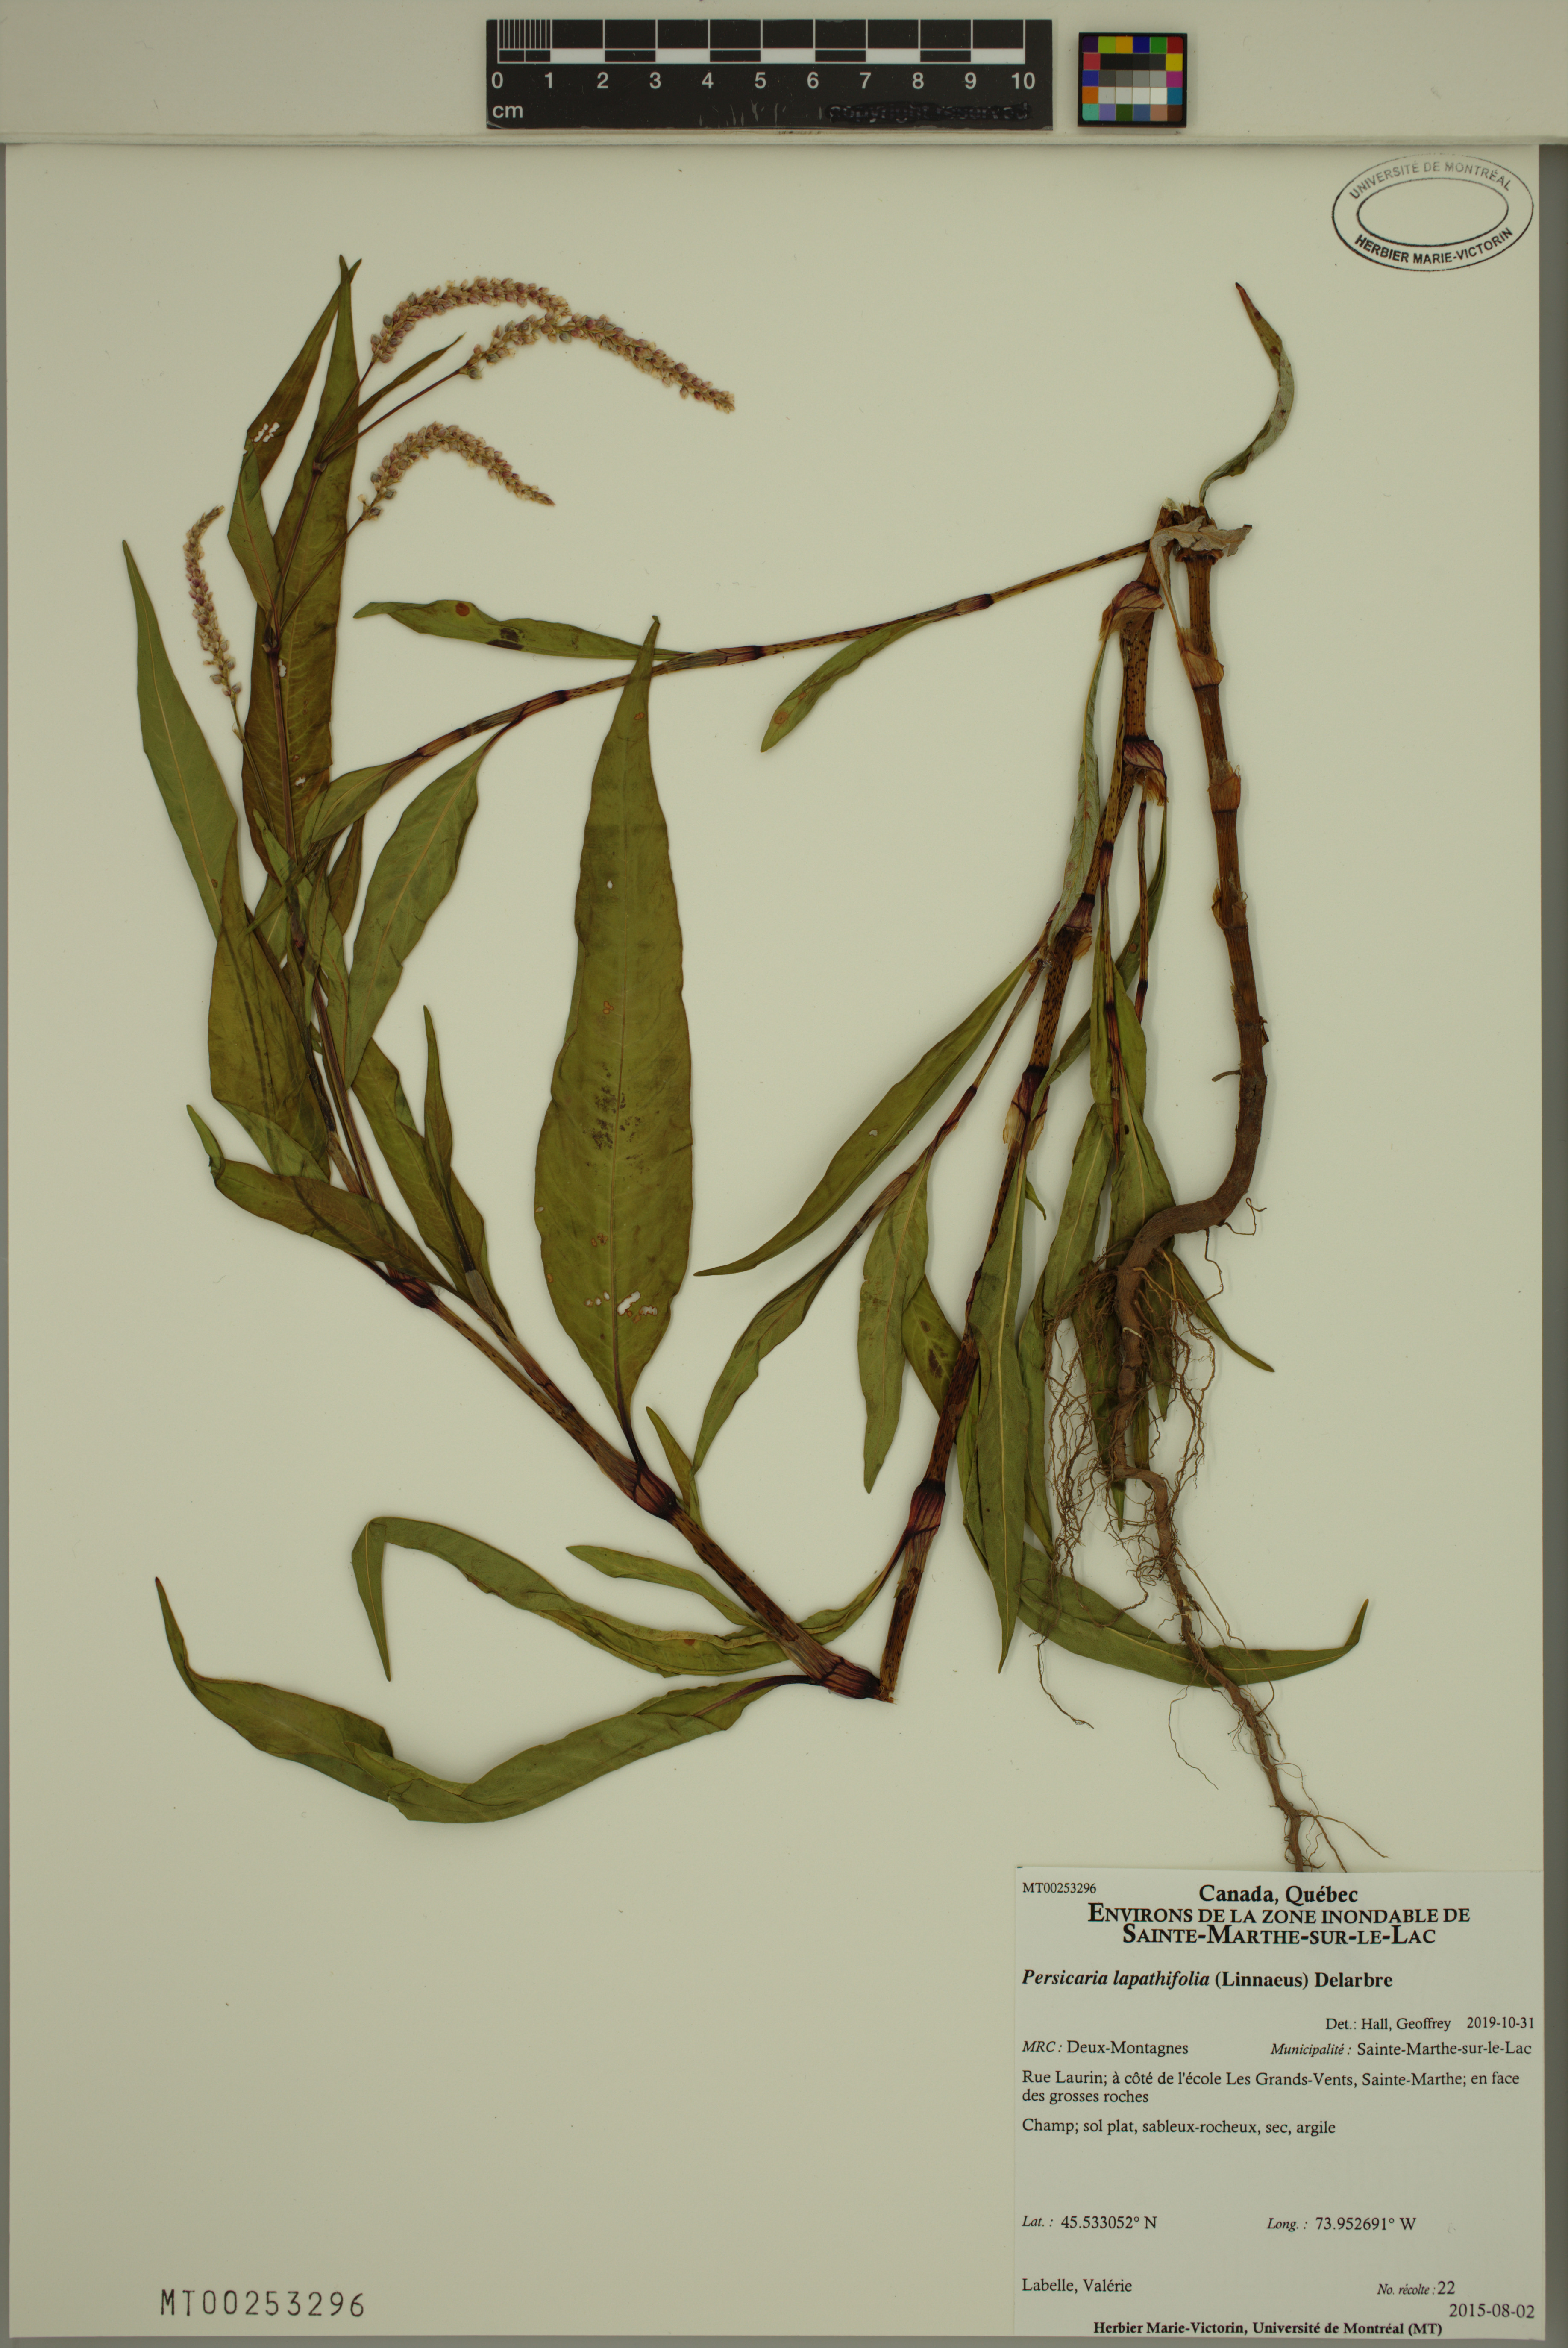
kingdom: Plantae
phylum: Tracheophyta
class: Magnoliopsida
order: Caryophyllales
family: Polygonaceae
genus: Persicaria
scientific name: Persicaria lapathifolia
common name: Curlytop knotweed
